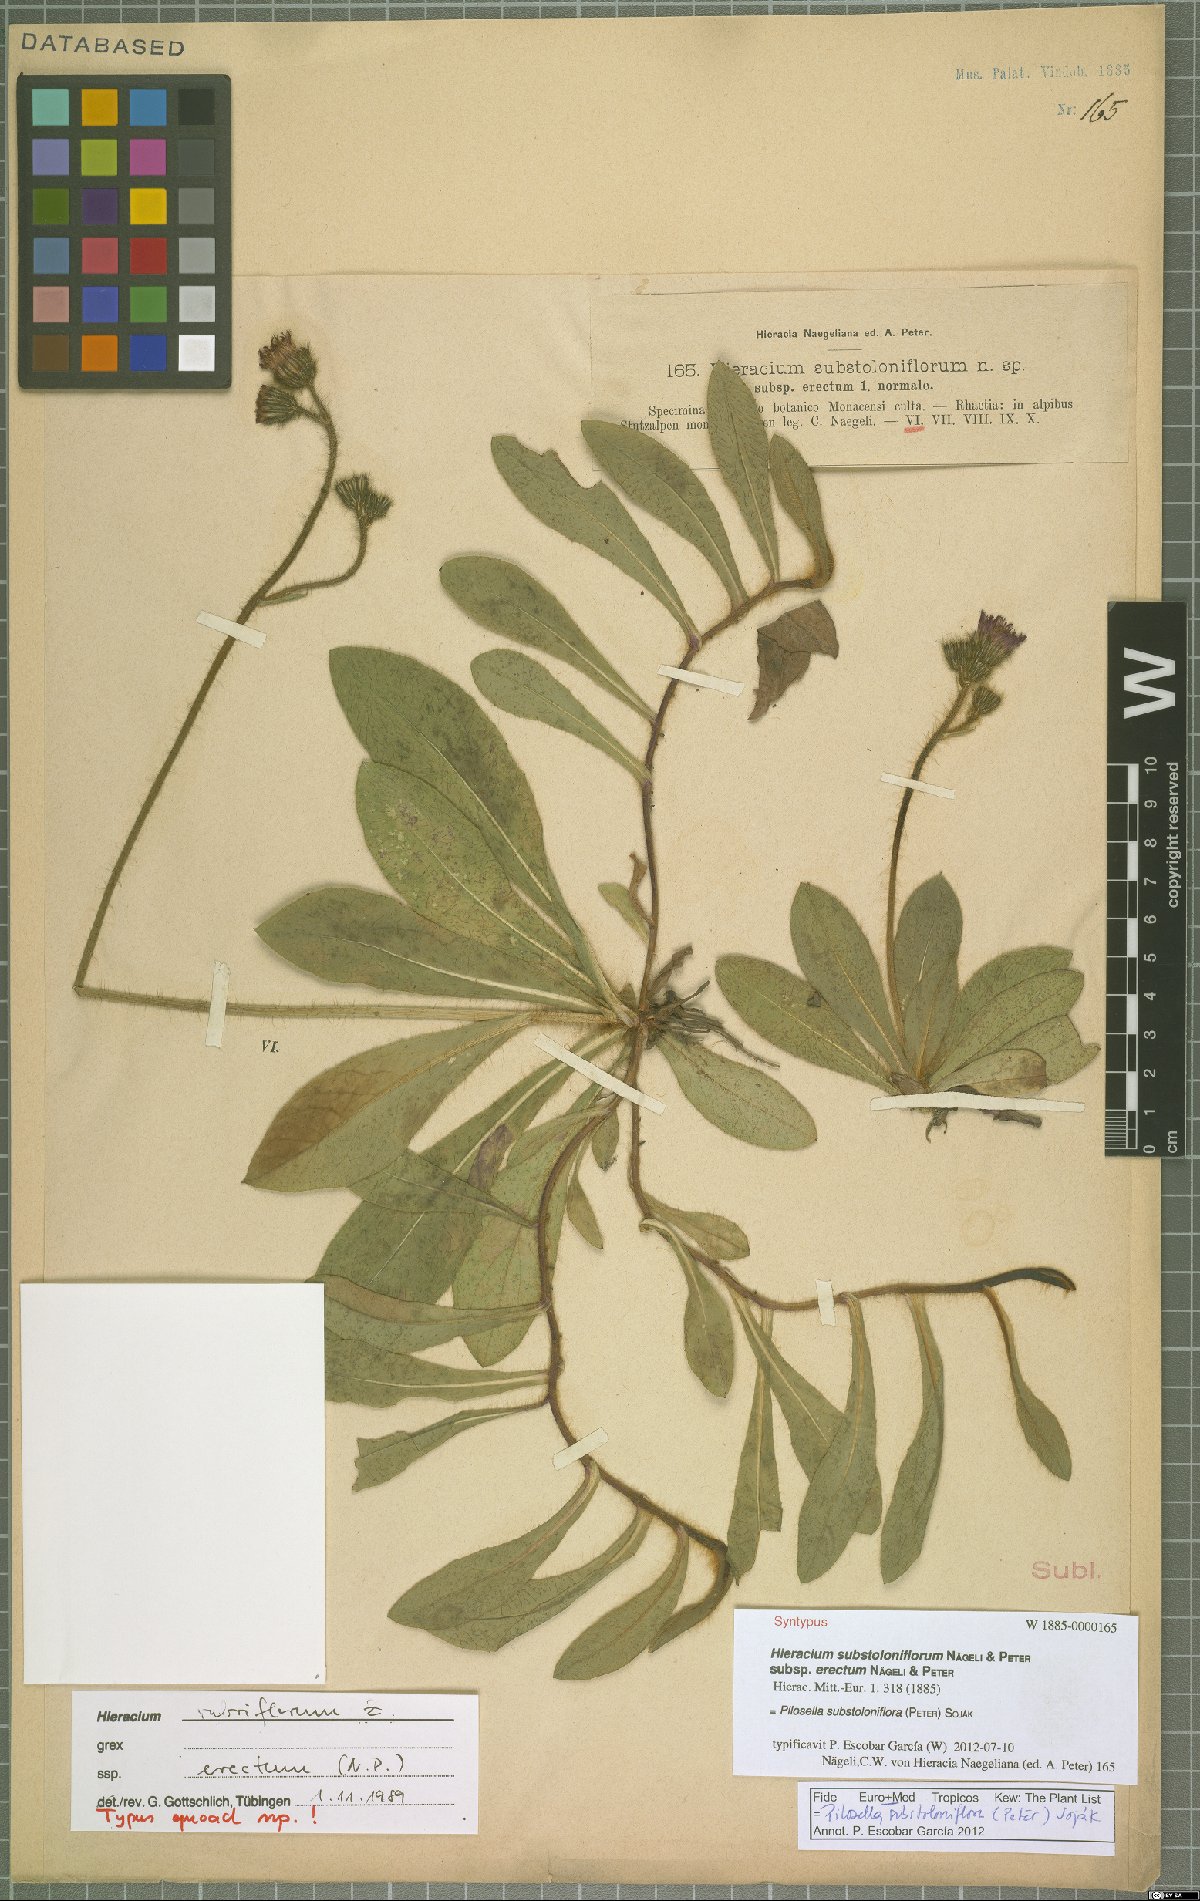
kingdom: Plantae
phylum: Tracheophyta
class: Magnoliopsida
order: Asterales
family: Asteraceae
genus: Pilosella
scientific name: Pilosella substoloniflora
